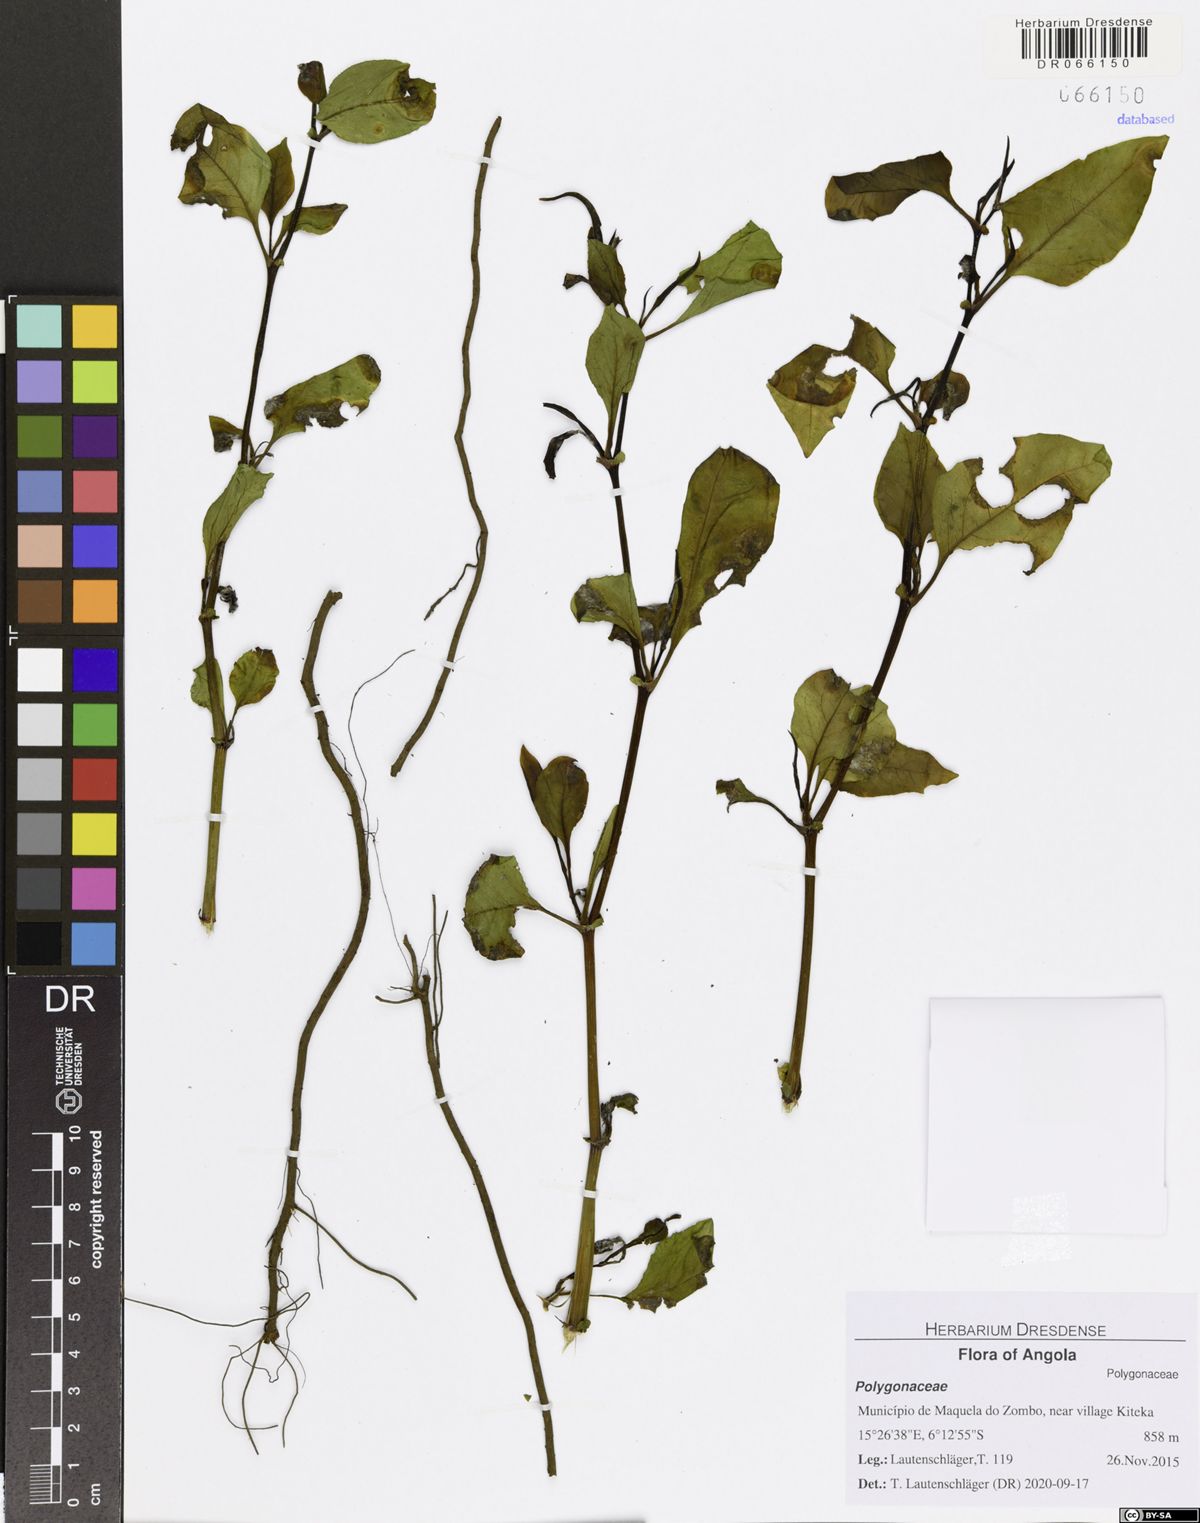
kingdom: Plantae
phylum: Tracheophyta
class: Magnoliopsida
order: Caryophyllales
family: Polygonaceae
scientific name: Polygonaceae
